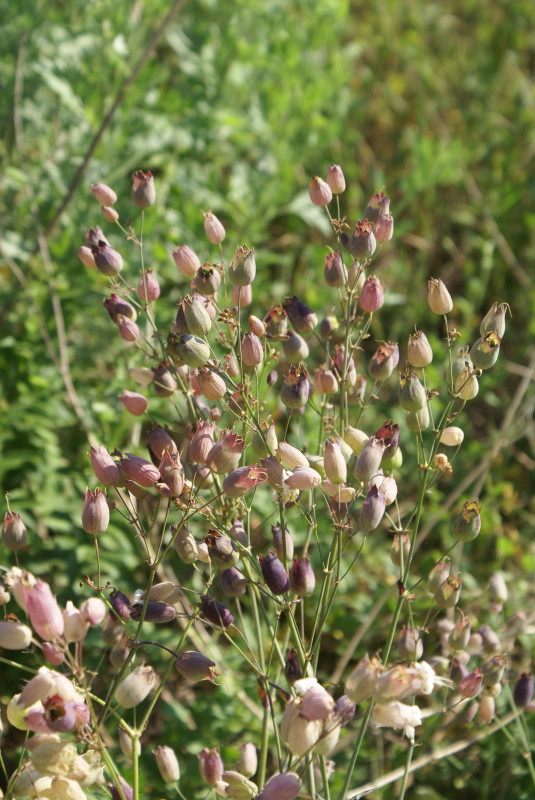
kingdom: Plantae
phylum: Tracheophyta
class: Magnoliopsida
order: Caryophyllales
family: Caryophyllaceae
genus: Silene
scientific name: Silene behen
